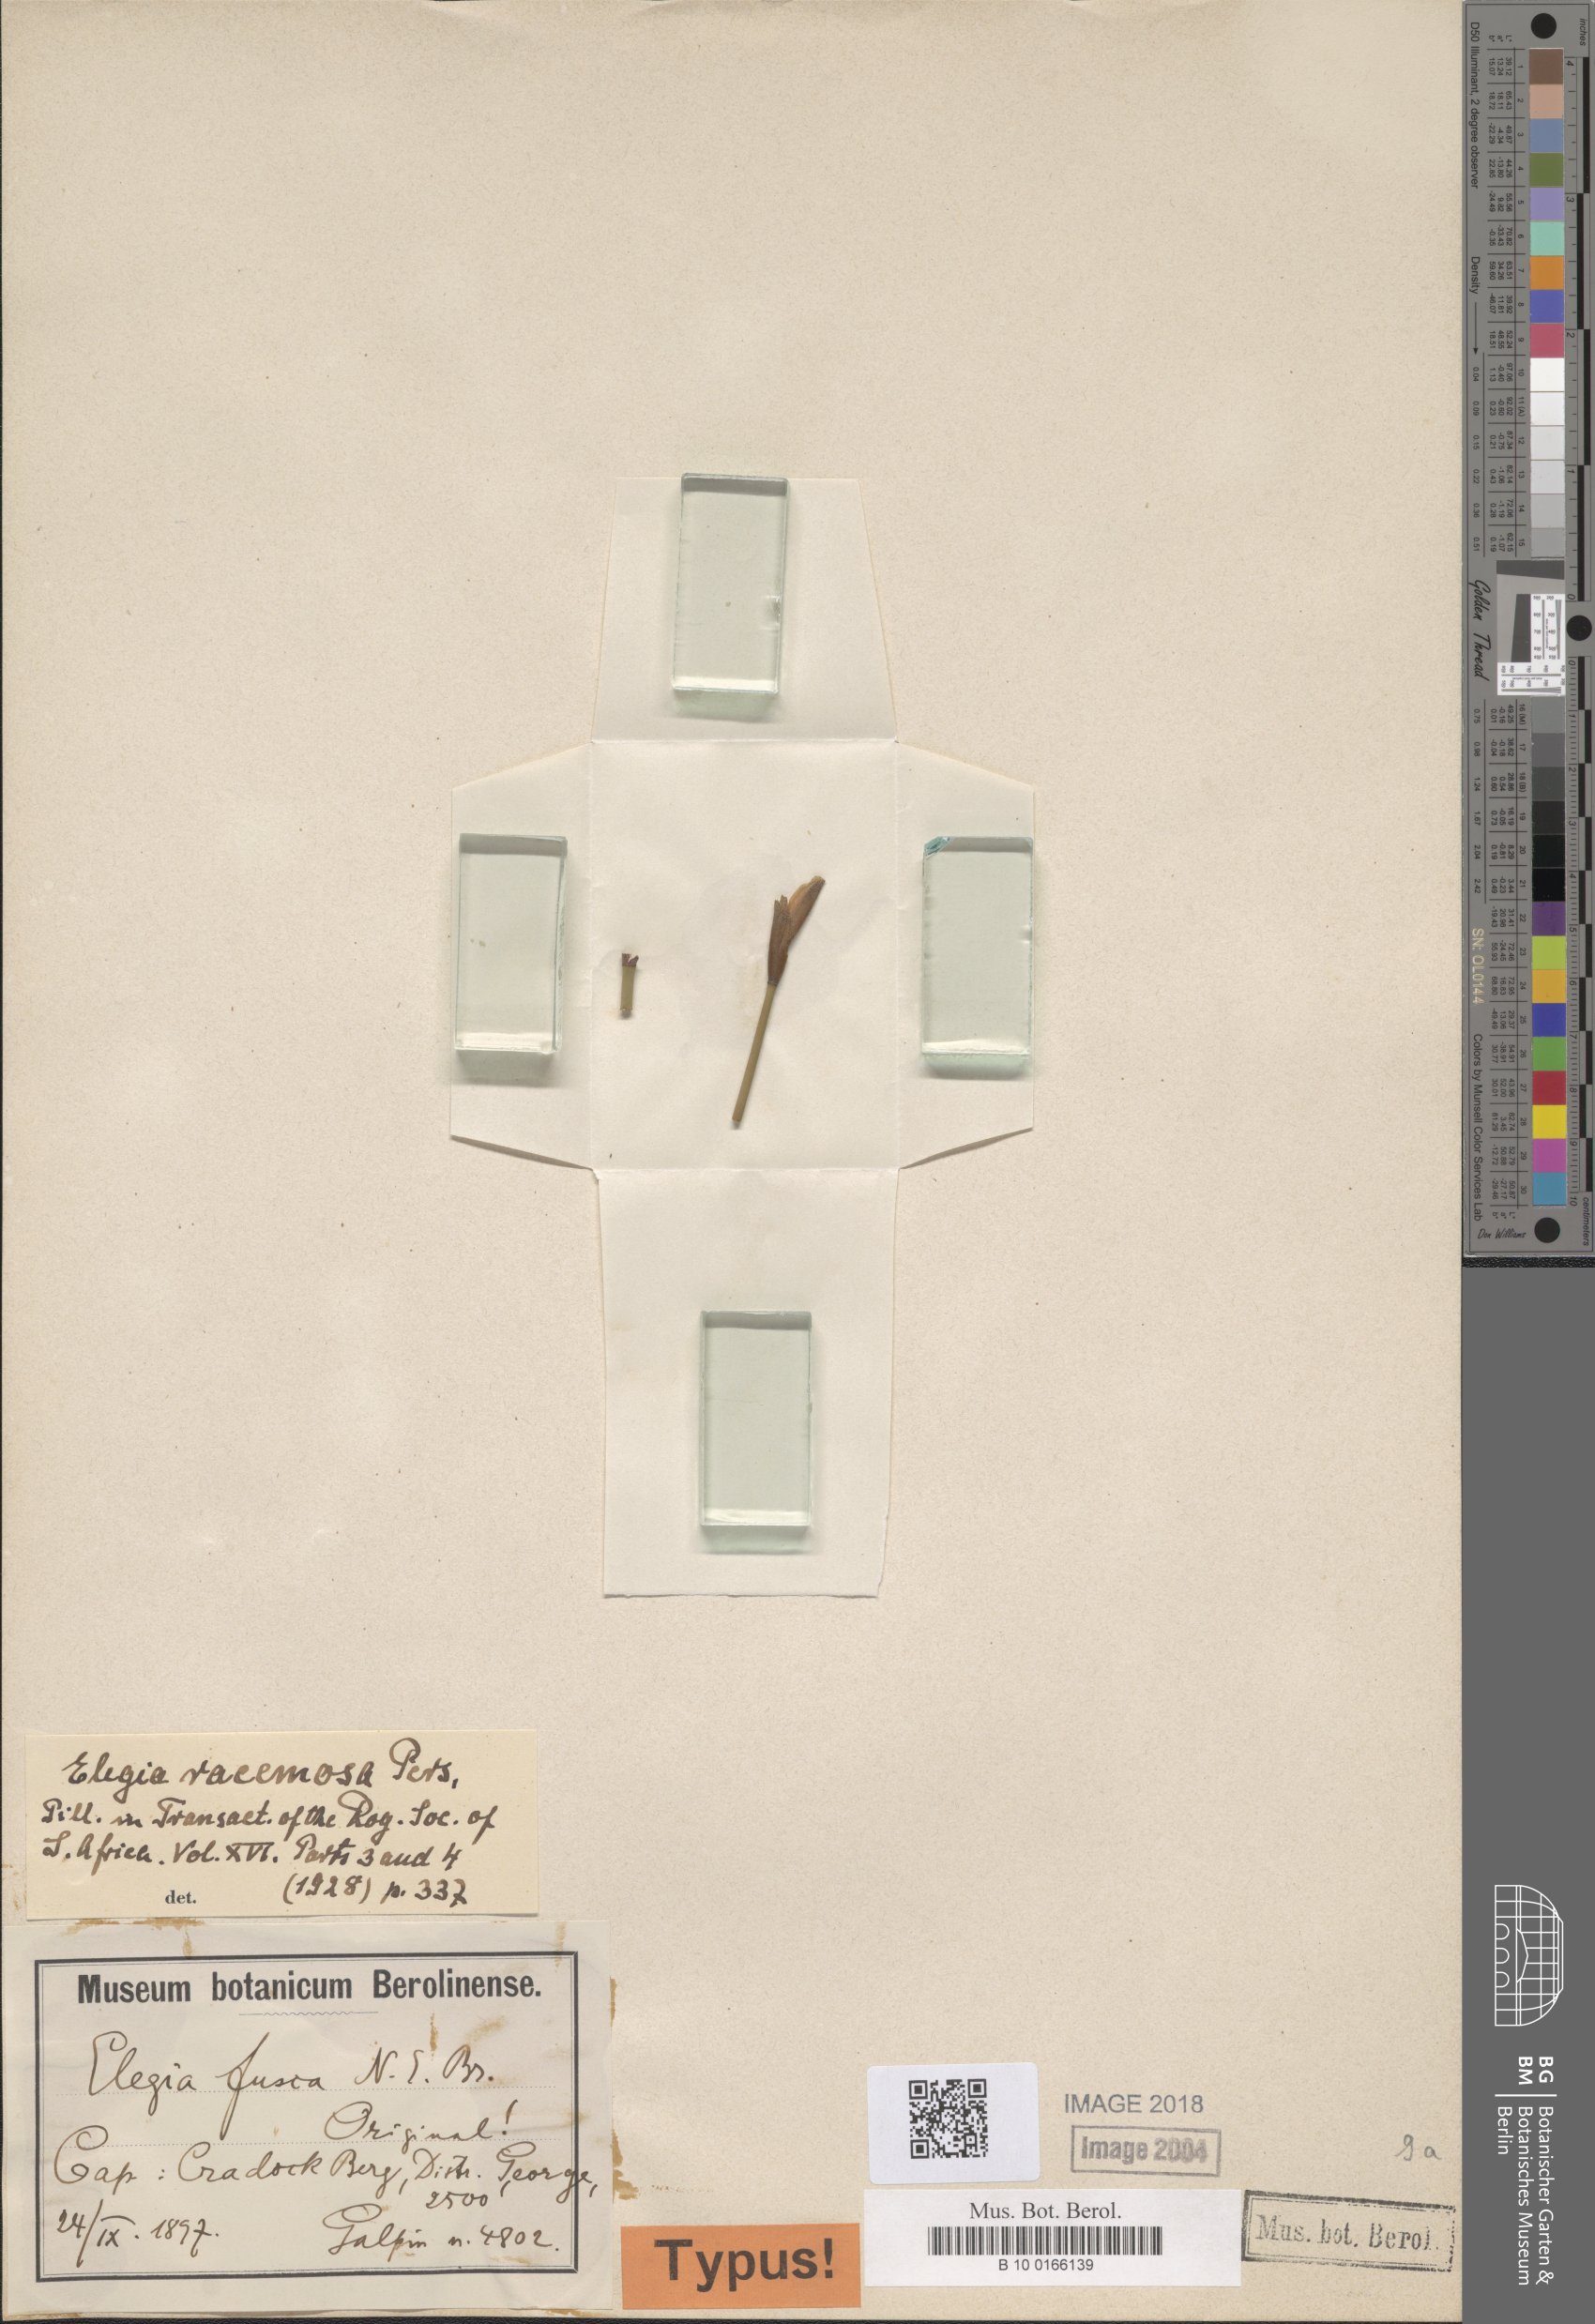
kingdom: Plantae
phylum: Tracheophyta
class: Liliopsida
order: Poales
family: Restionaceae
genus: Elegia
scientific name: Elegia racemosa
